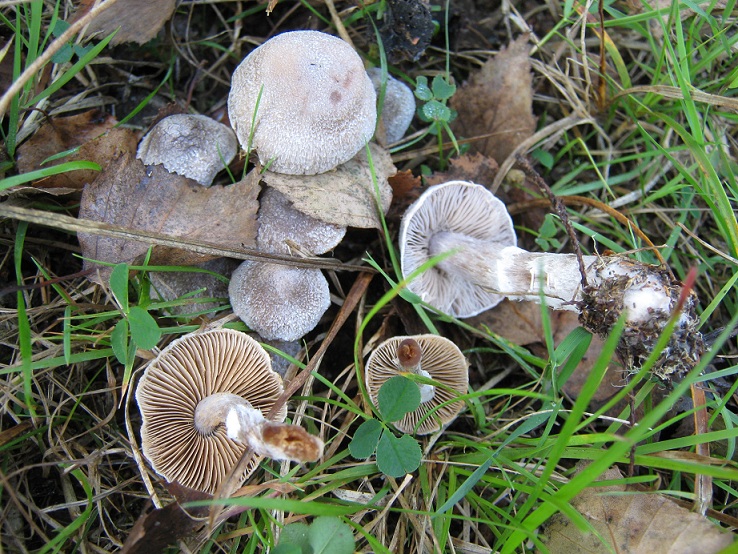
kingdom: Fungi
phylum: Basidiomycota
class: Agaricomycetes
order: Agaricales
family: Cortinariaceae
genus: Cortinarius
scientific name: Cortinarius hemitrichus
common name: hvidfnugget slørhat
